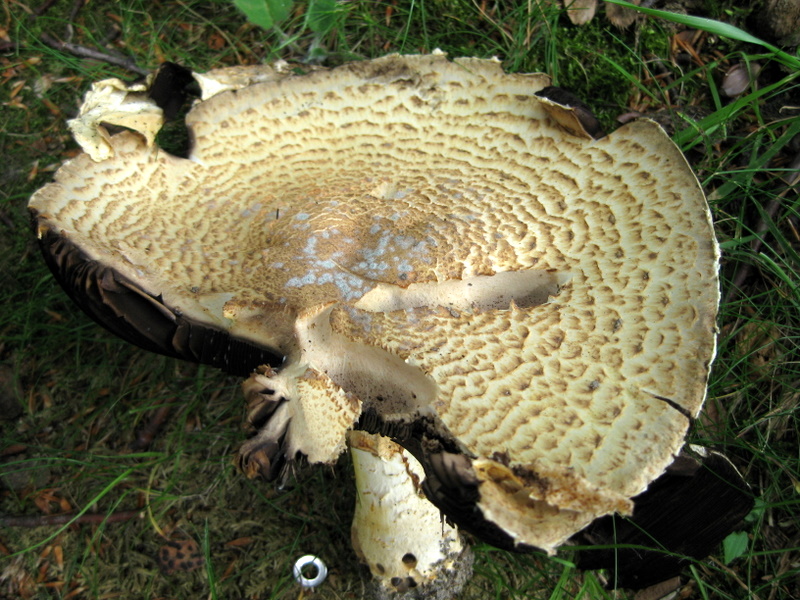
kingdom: Fungi
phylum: Basidiomycota
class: Agaricomycetes
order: Agaricales
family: Agaricaceae
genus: Agaricus
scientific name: Agaricus augustus
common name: prægtig champignon
